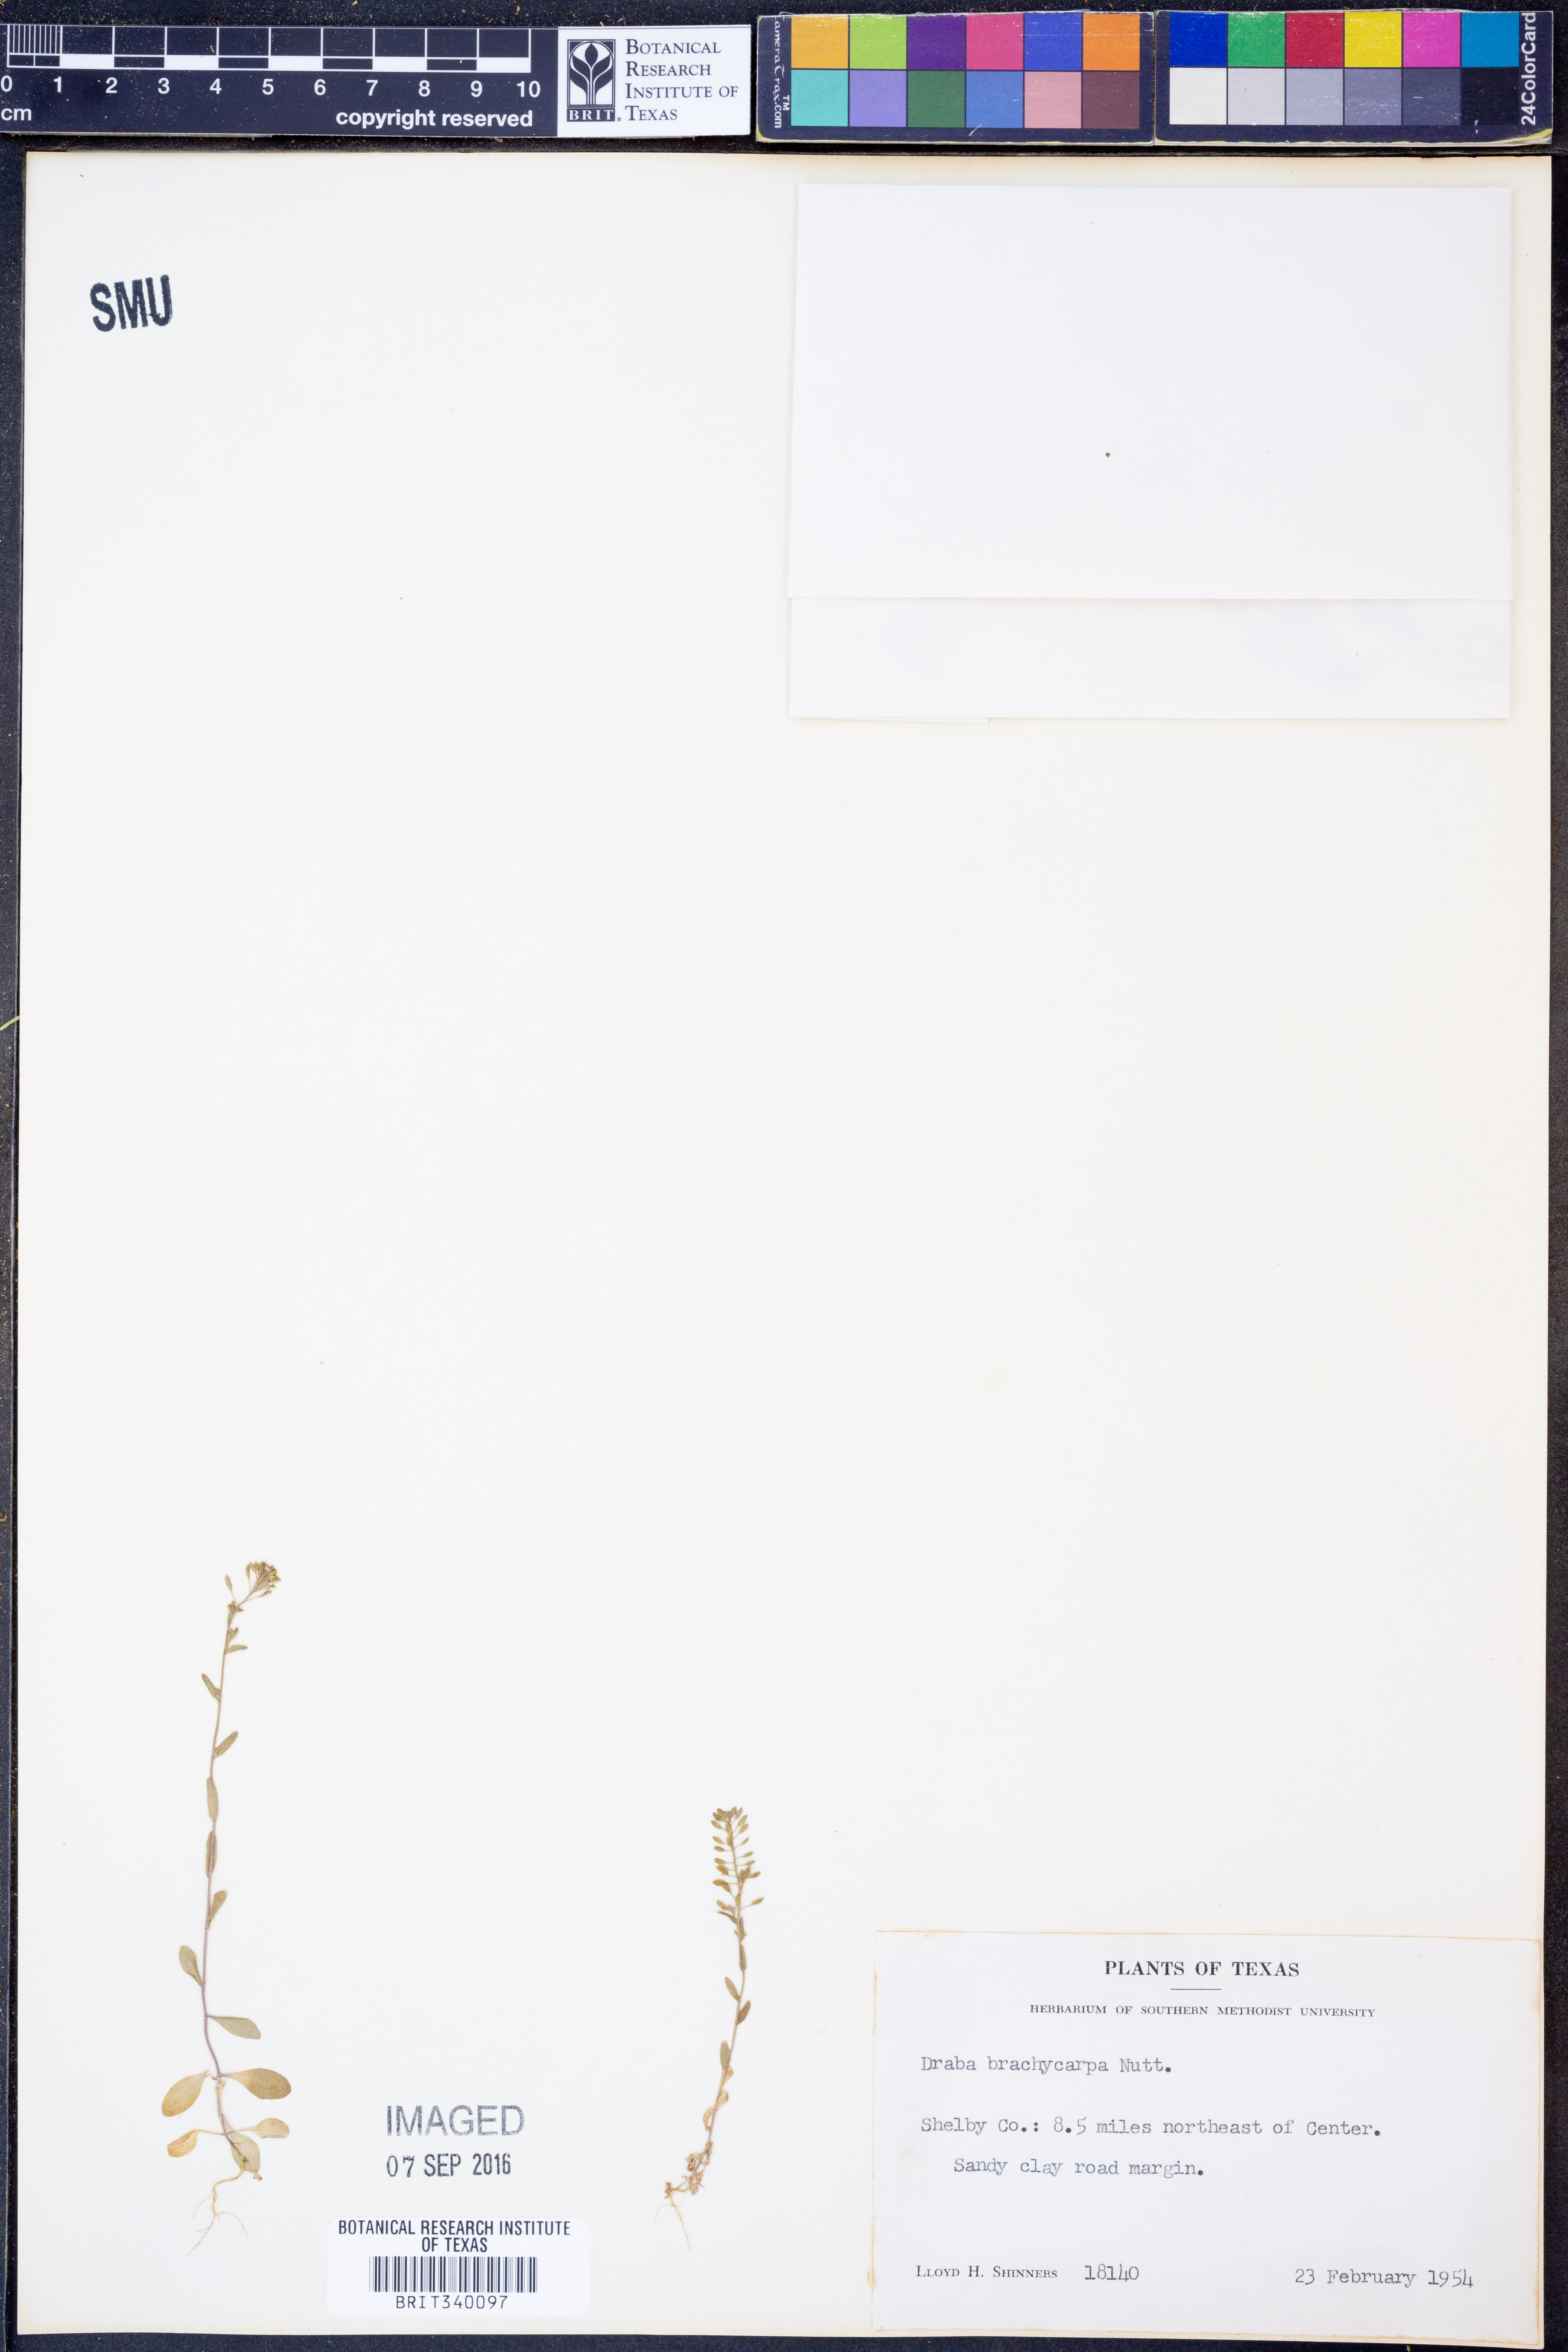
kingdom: Plantae
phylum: Tracheophyta
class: Magnoliopsida
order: Brassicales
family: Brassicaceae
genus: Abdra
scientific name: Abdra brachycarpa
